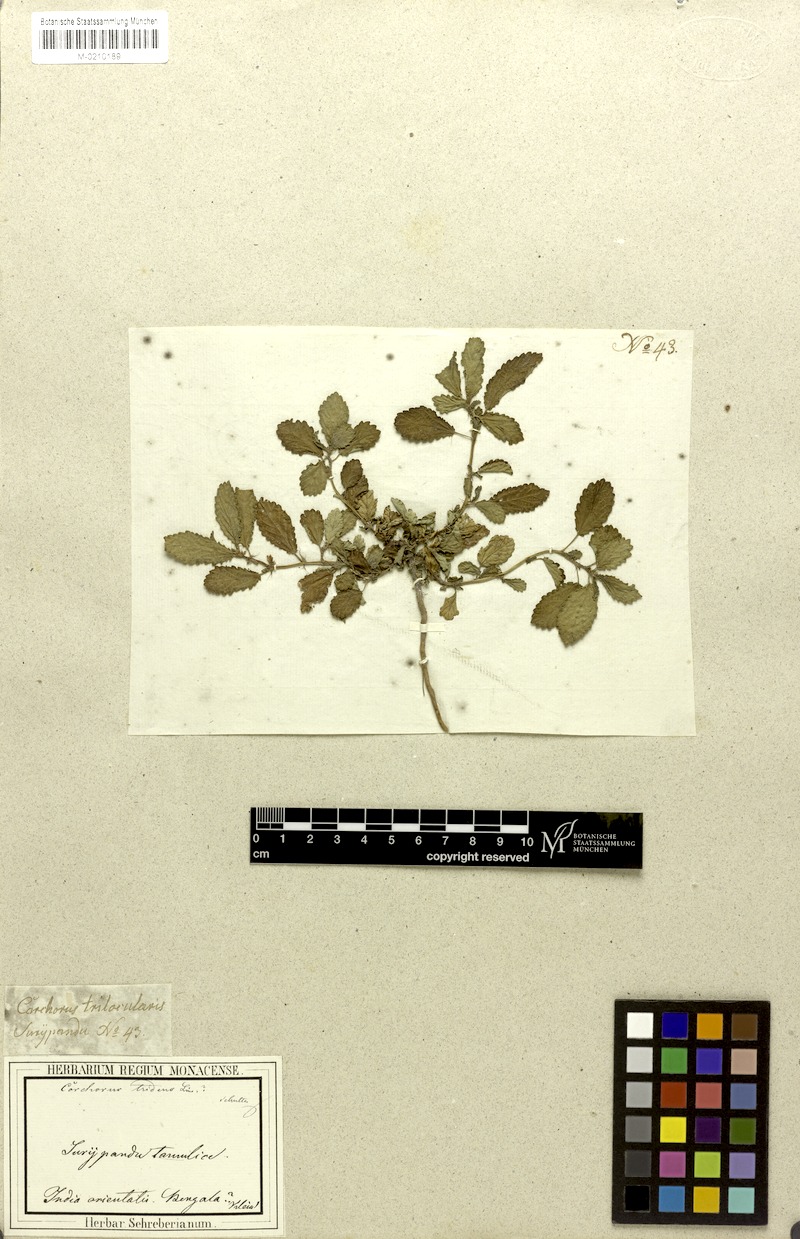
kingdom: Plantae
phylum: Tracheophyta
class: Magnoliopsida
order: Malvales
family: Malvaceae
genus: Corchorus
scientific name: Corchorus tridens
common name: Wild jute
